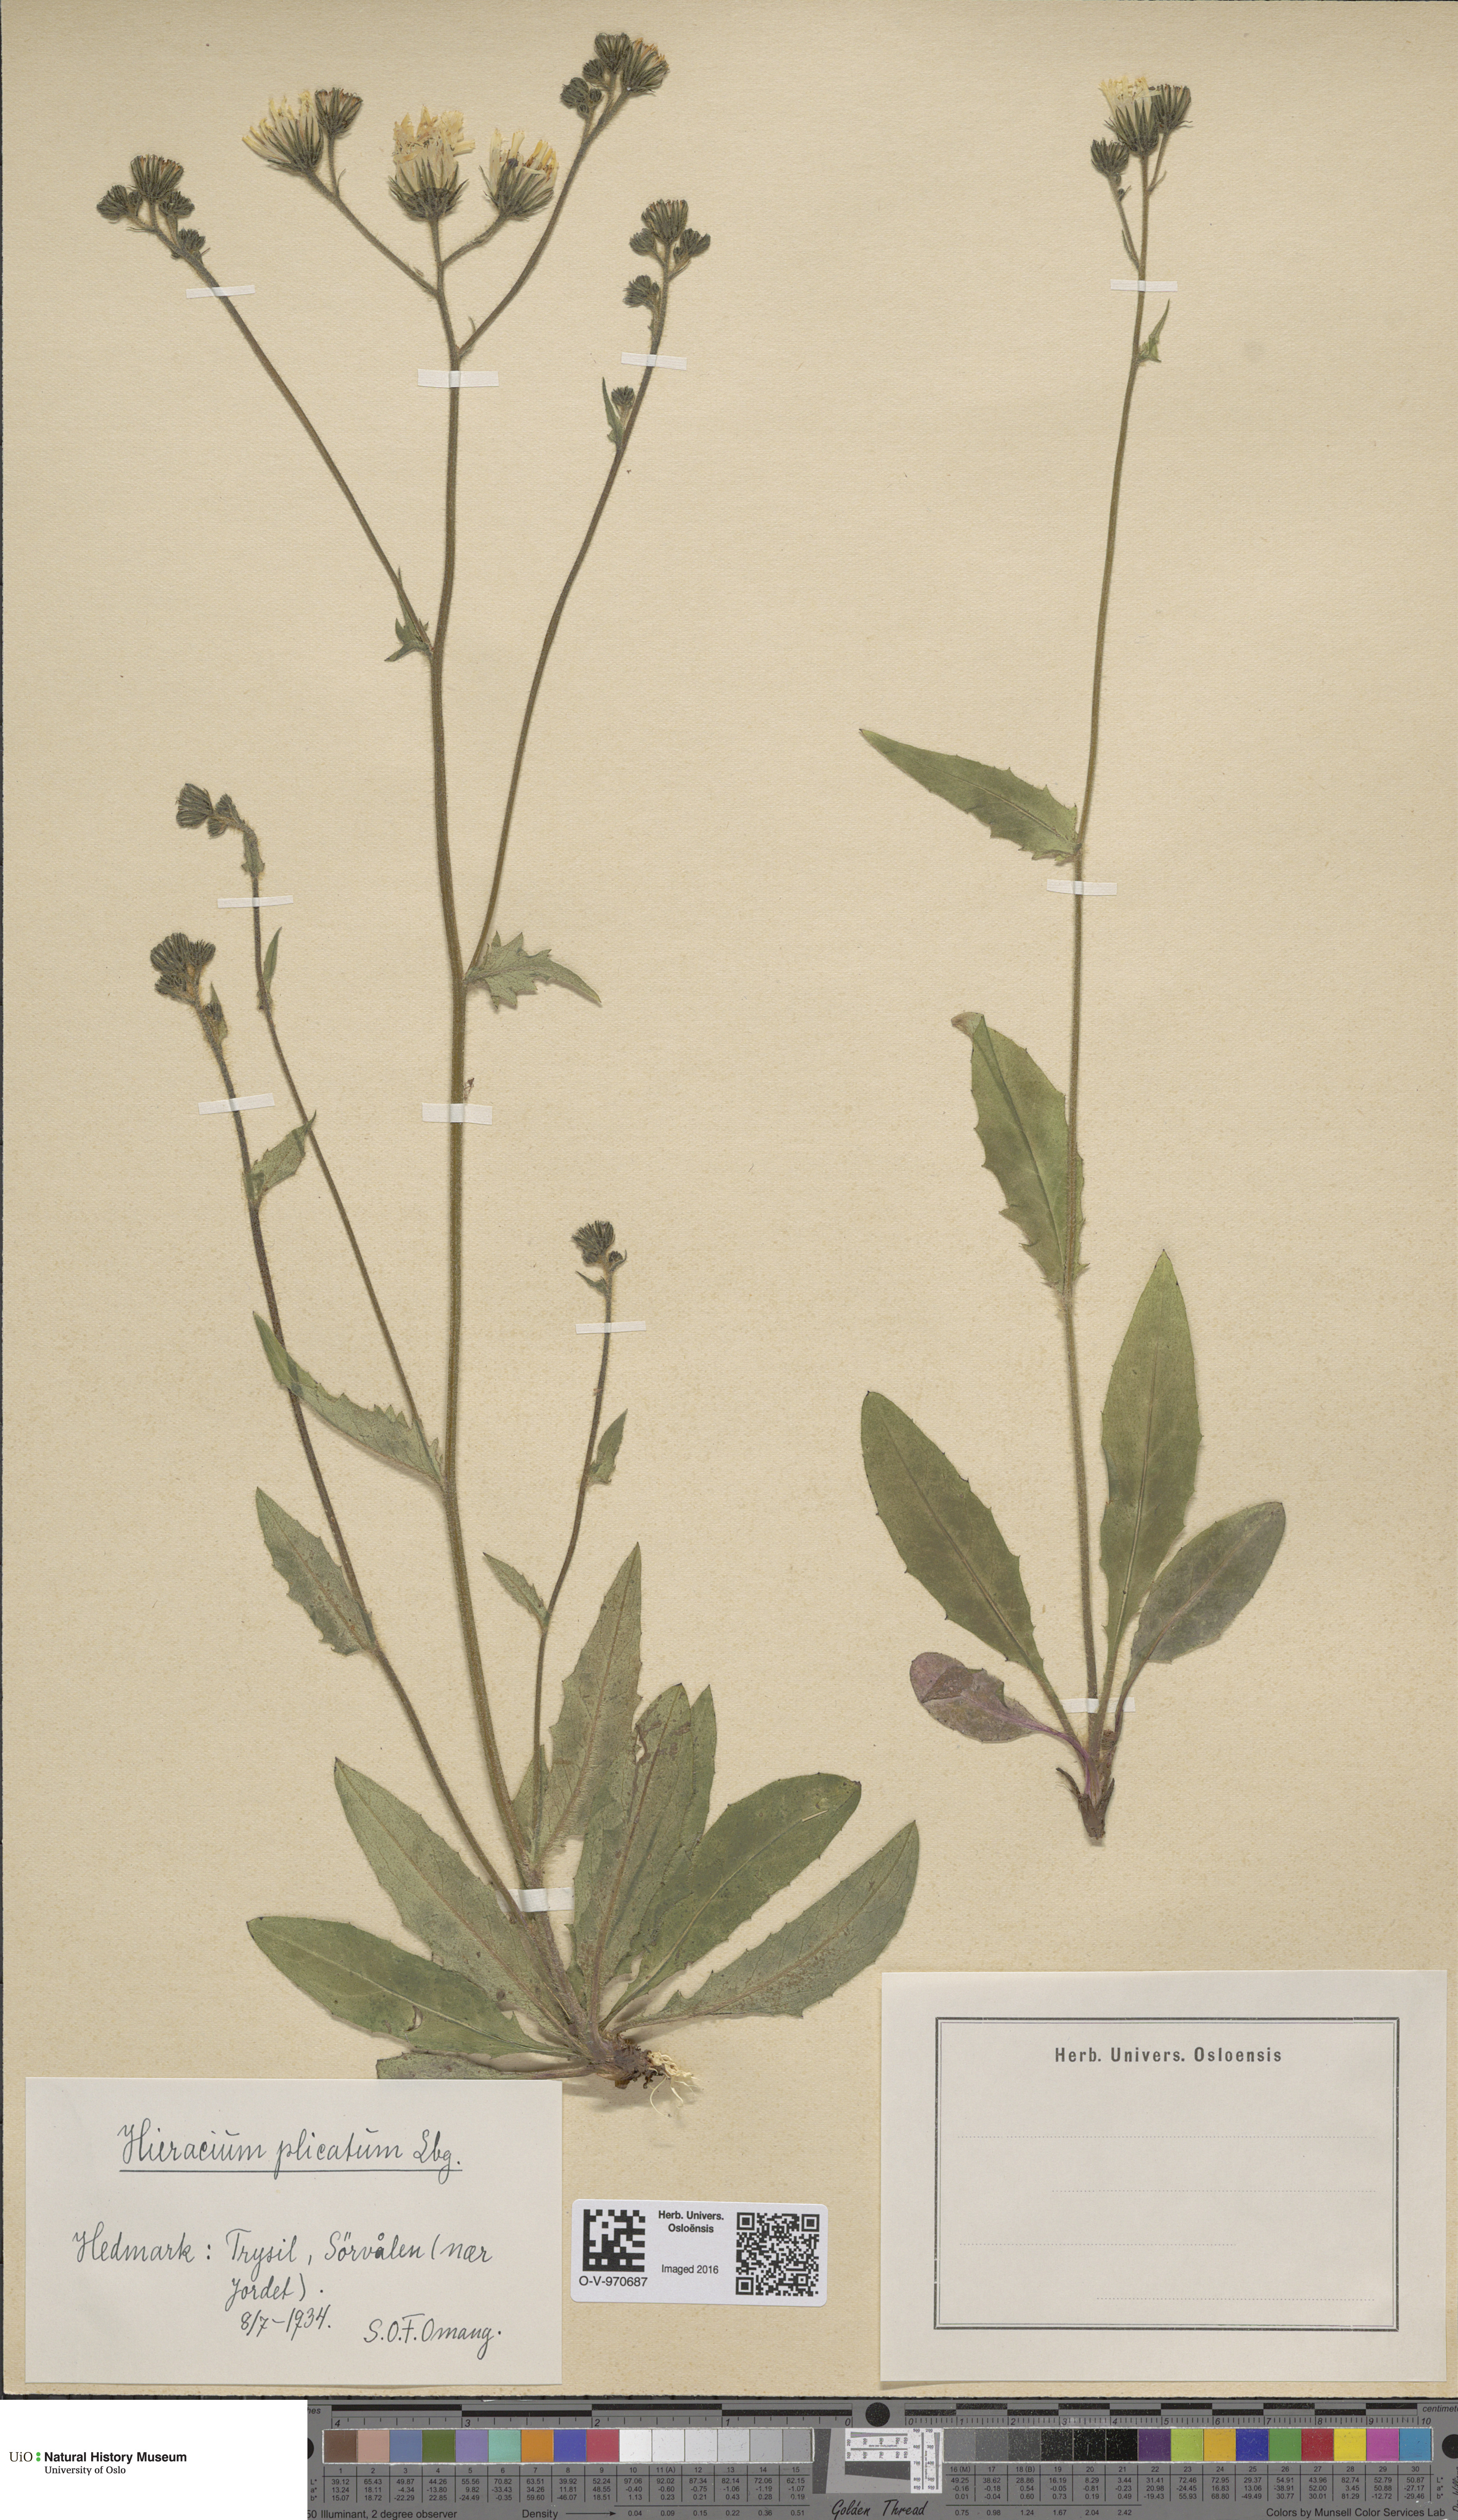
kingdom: Plantae
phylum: Tracheophyta
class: Magnoliopsida
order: Asterales
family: Asteraceae
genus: Hieracium
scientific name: Hieracium plicatum
